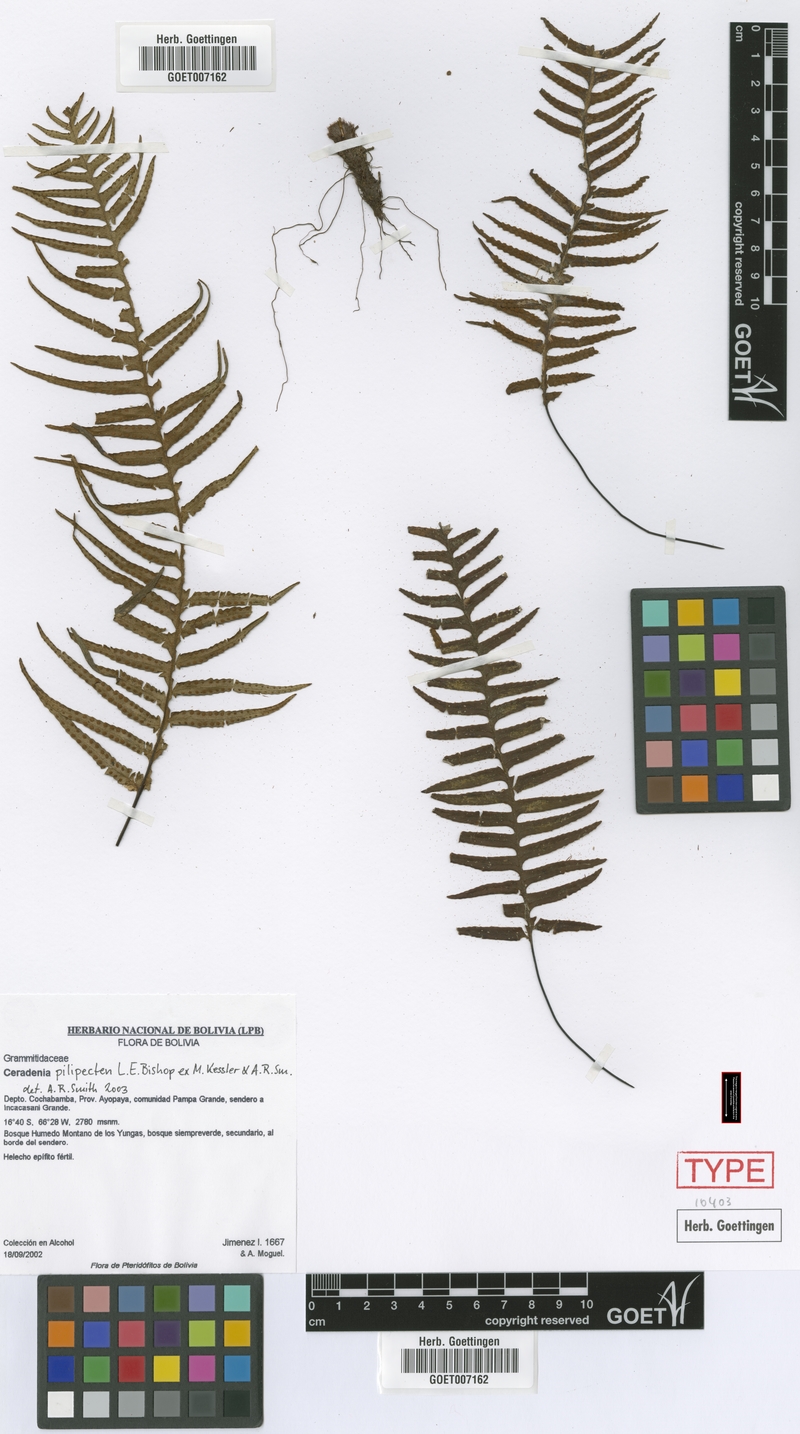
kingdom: Plantae
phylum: Tracheophyta
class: Polypodiopsida
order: Polypodiales
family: Polypodiaceae
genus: Ceradenia
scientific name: Ceradenia pilipecten
